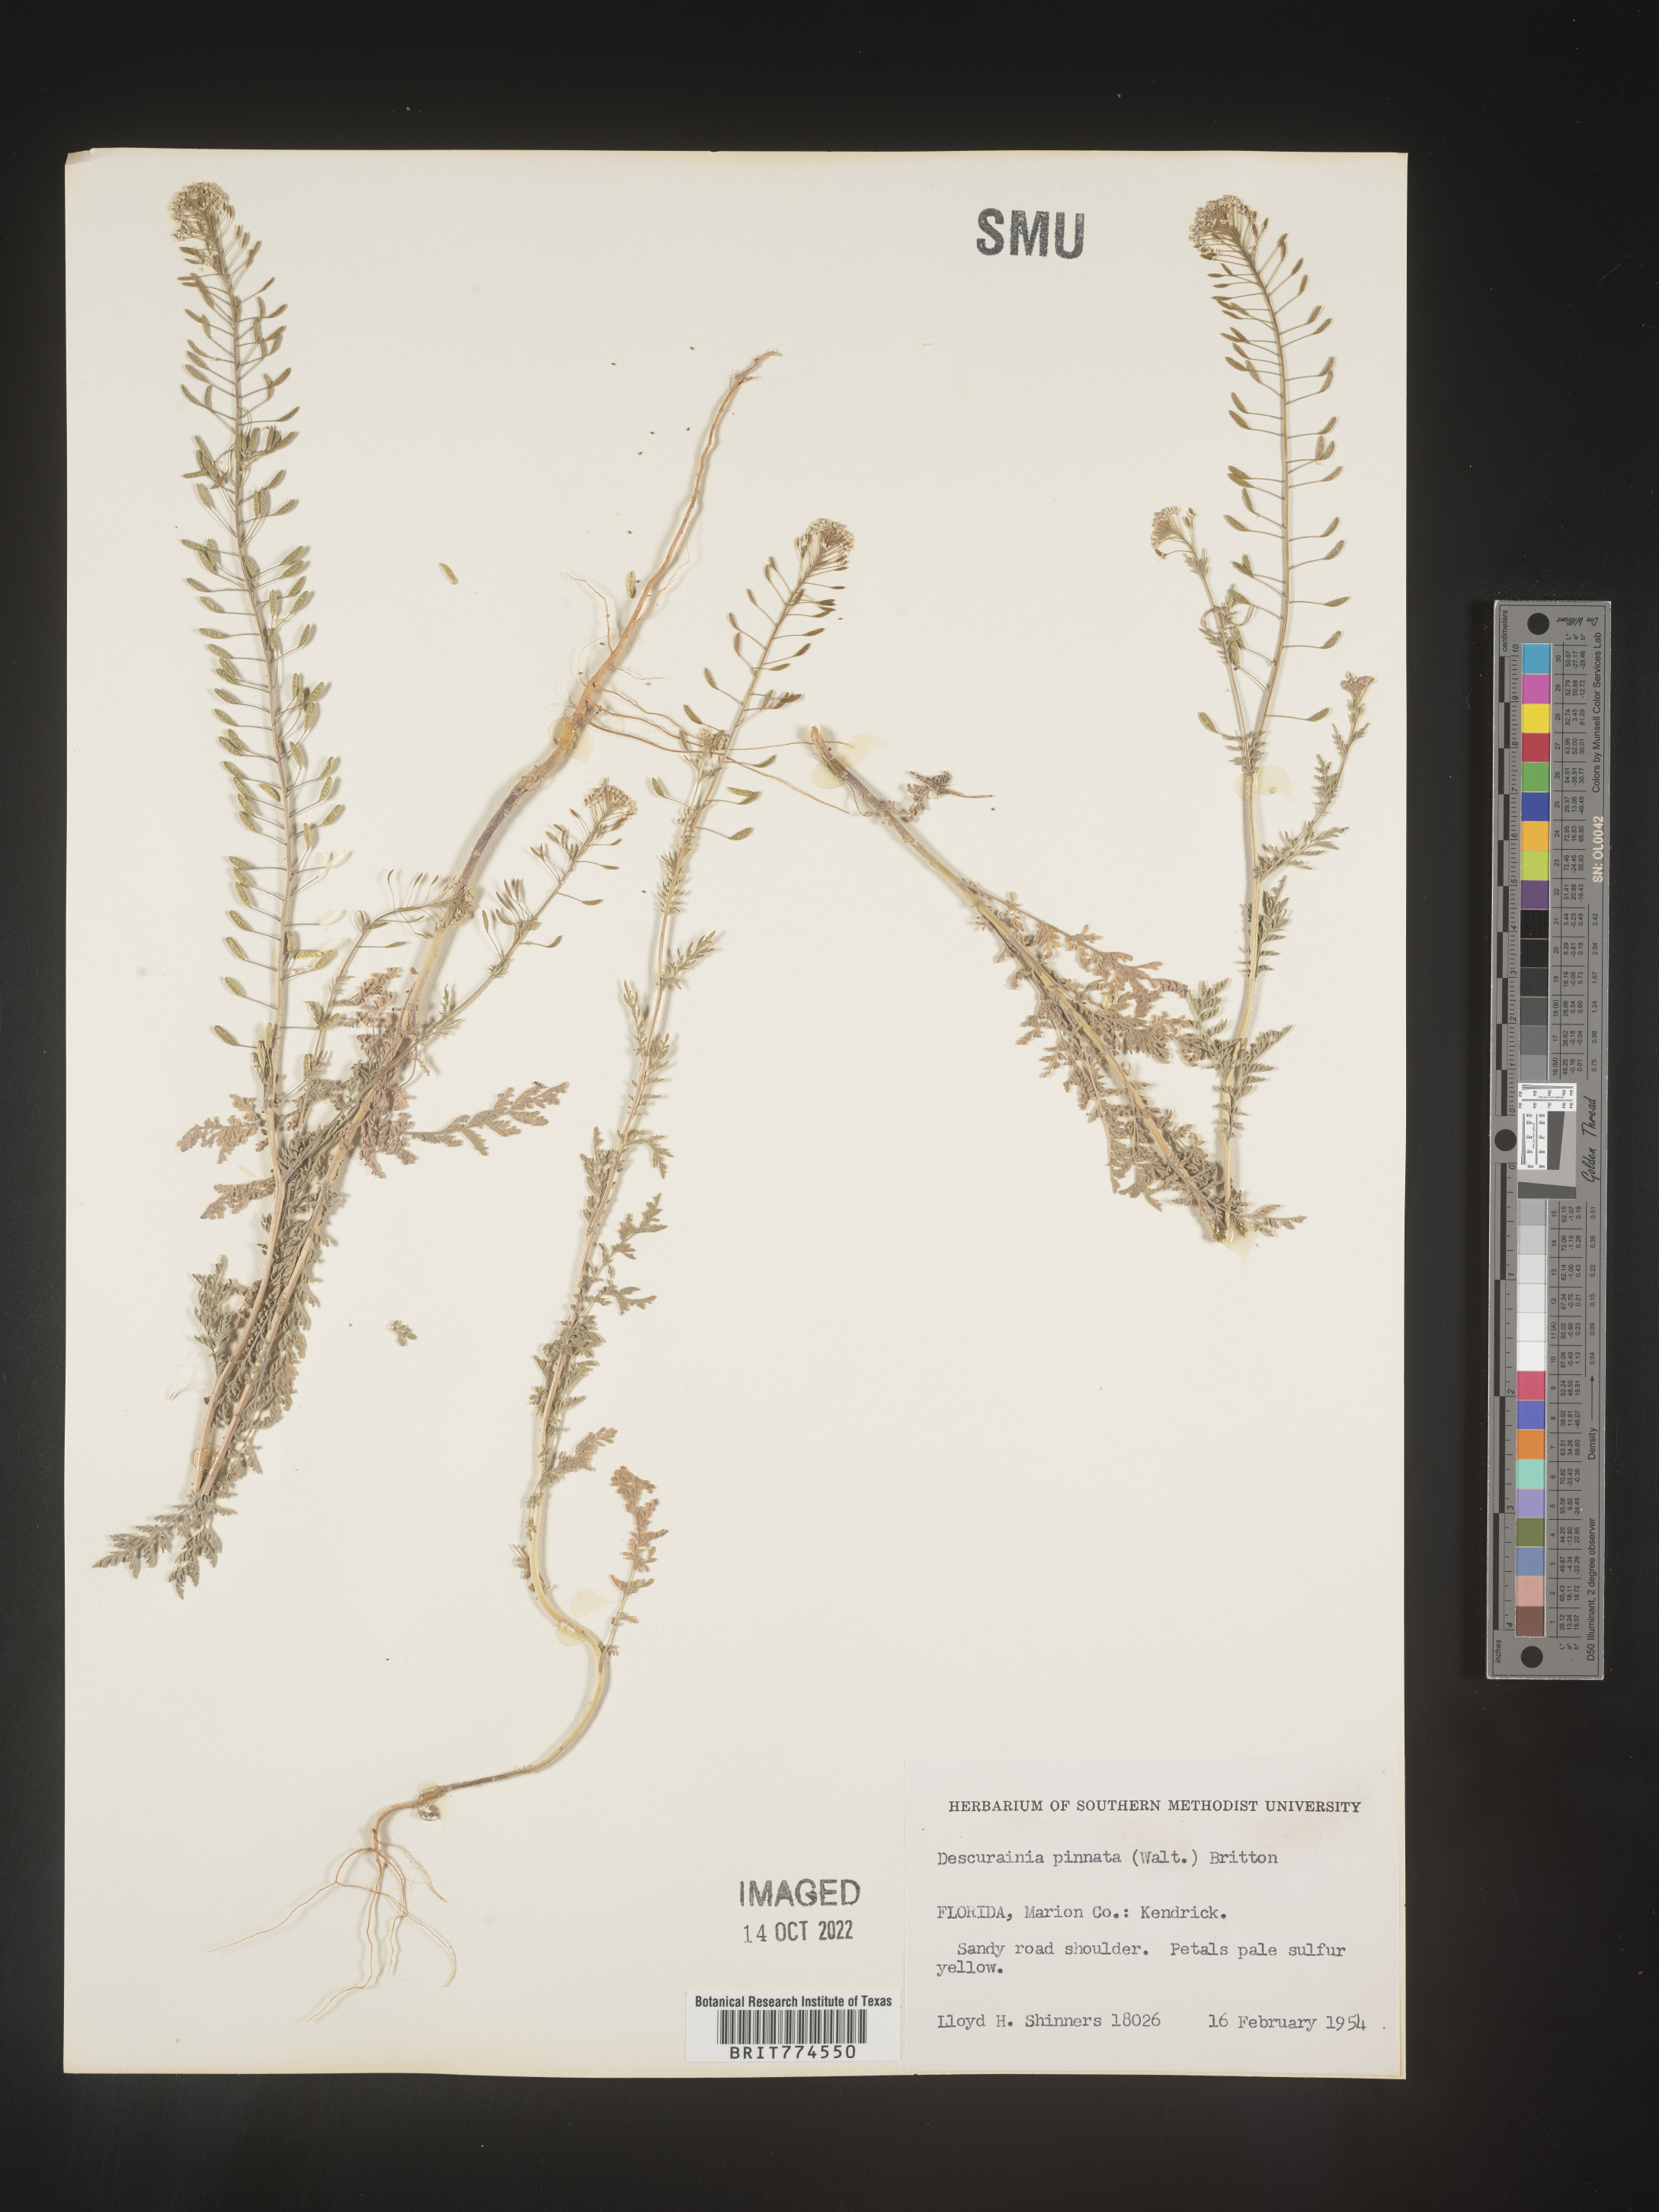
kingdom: Plantae
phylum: Tracheophyta
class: Magnoliopsida
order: Brassicales
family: Brassicaceae
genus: Descurainia
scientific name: Descurainia pinnata
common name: Western tansy mustard
